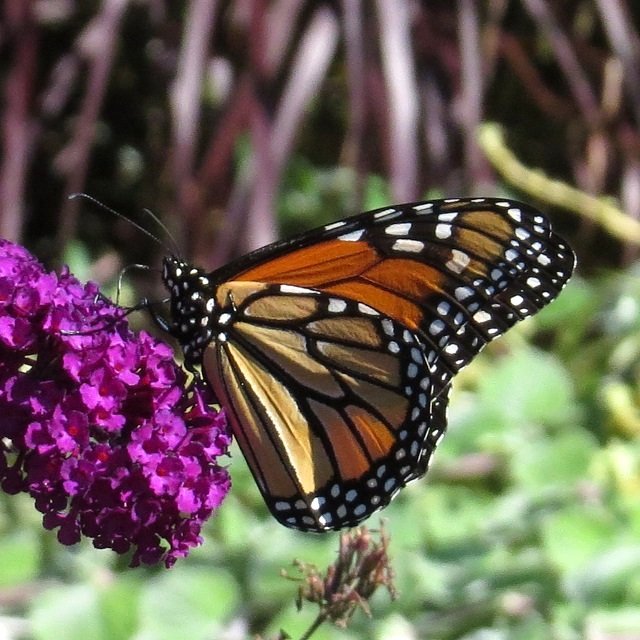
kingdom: Animalia
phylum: Arthropoda
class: Insecta
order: Lepidoptera
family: Nymphalidae
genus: Danaus
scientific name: Danaus plexippus
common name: Monarch
